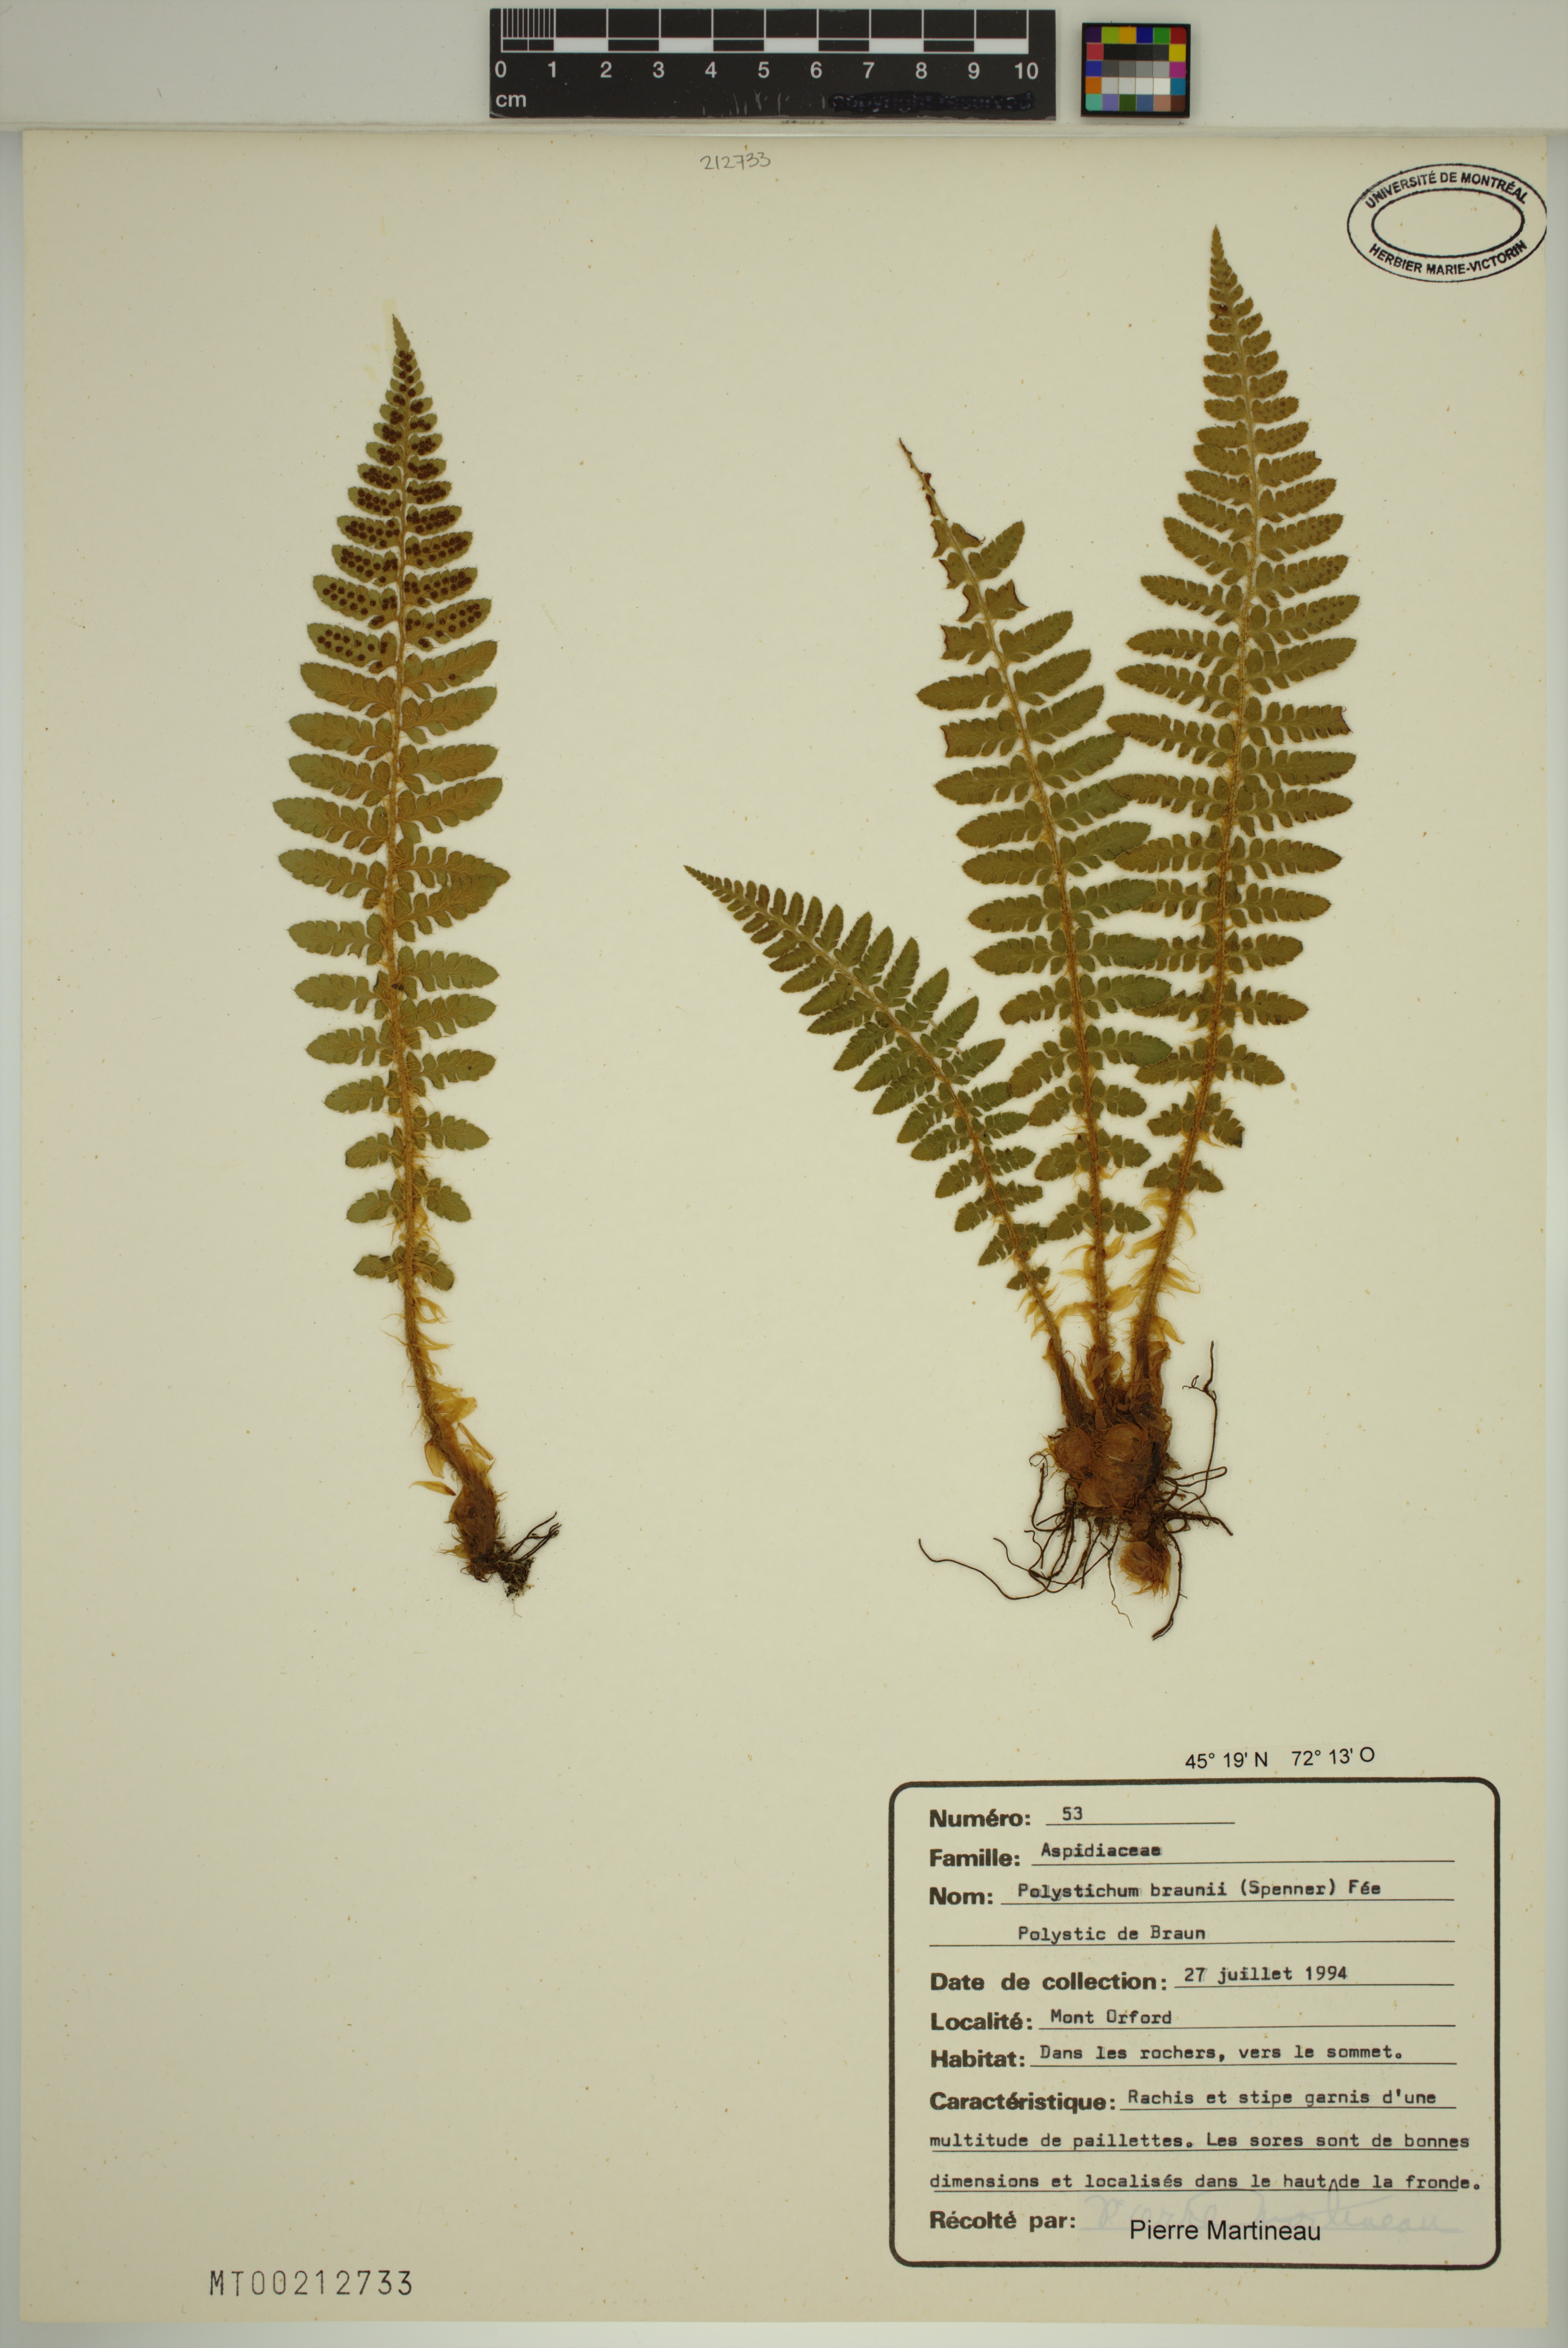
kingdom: Plantae
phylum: Tracheophyta
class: Polypodiopsida
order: Polypodiales
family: Dryopteridaceae
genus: Polystichum
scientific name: Polystichum braunii
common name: Braun's holly fern
